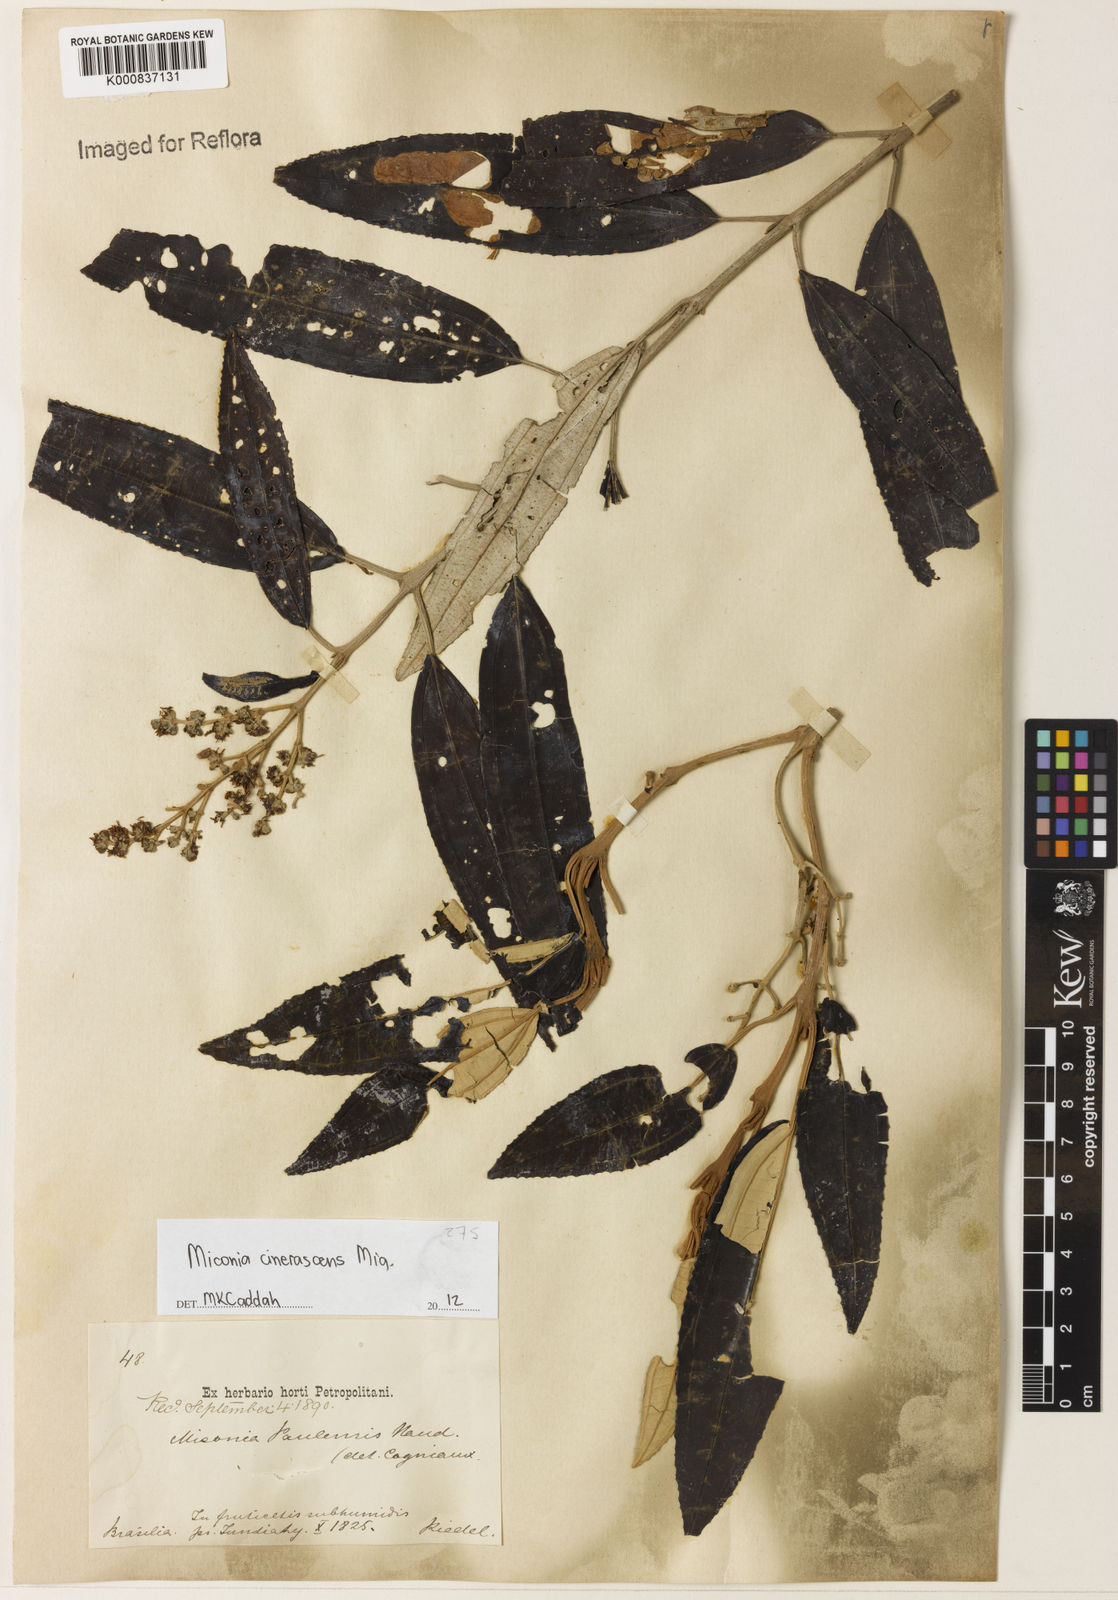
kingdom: Plantae
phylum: Tracheophyta
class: Magnoliopsida
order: Myrtales
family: Melastomataceae
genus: Miconia
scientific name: Miconia cinerascens
